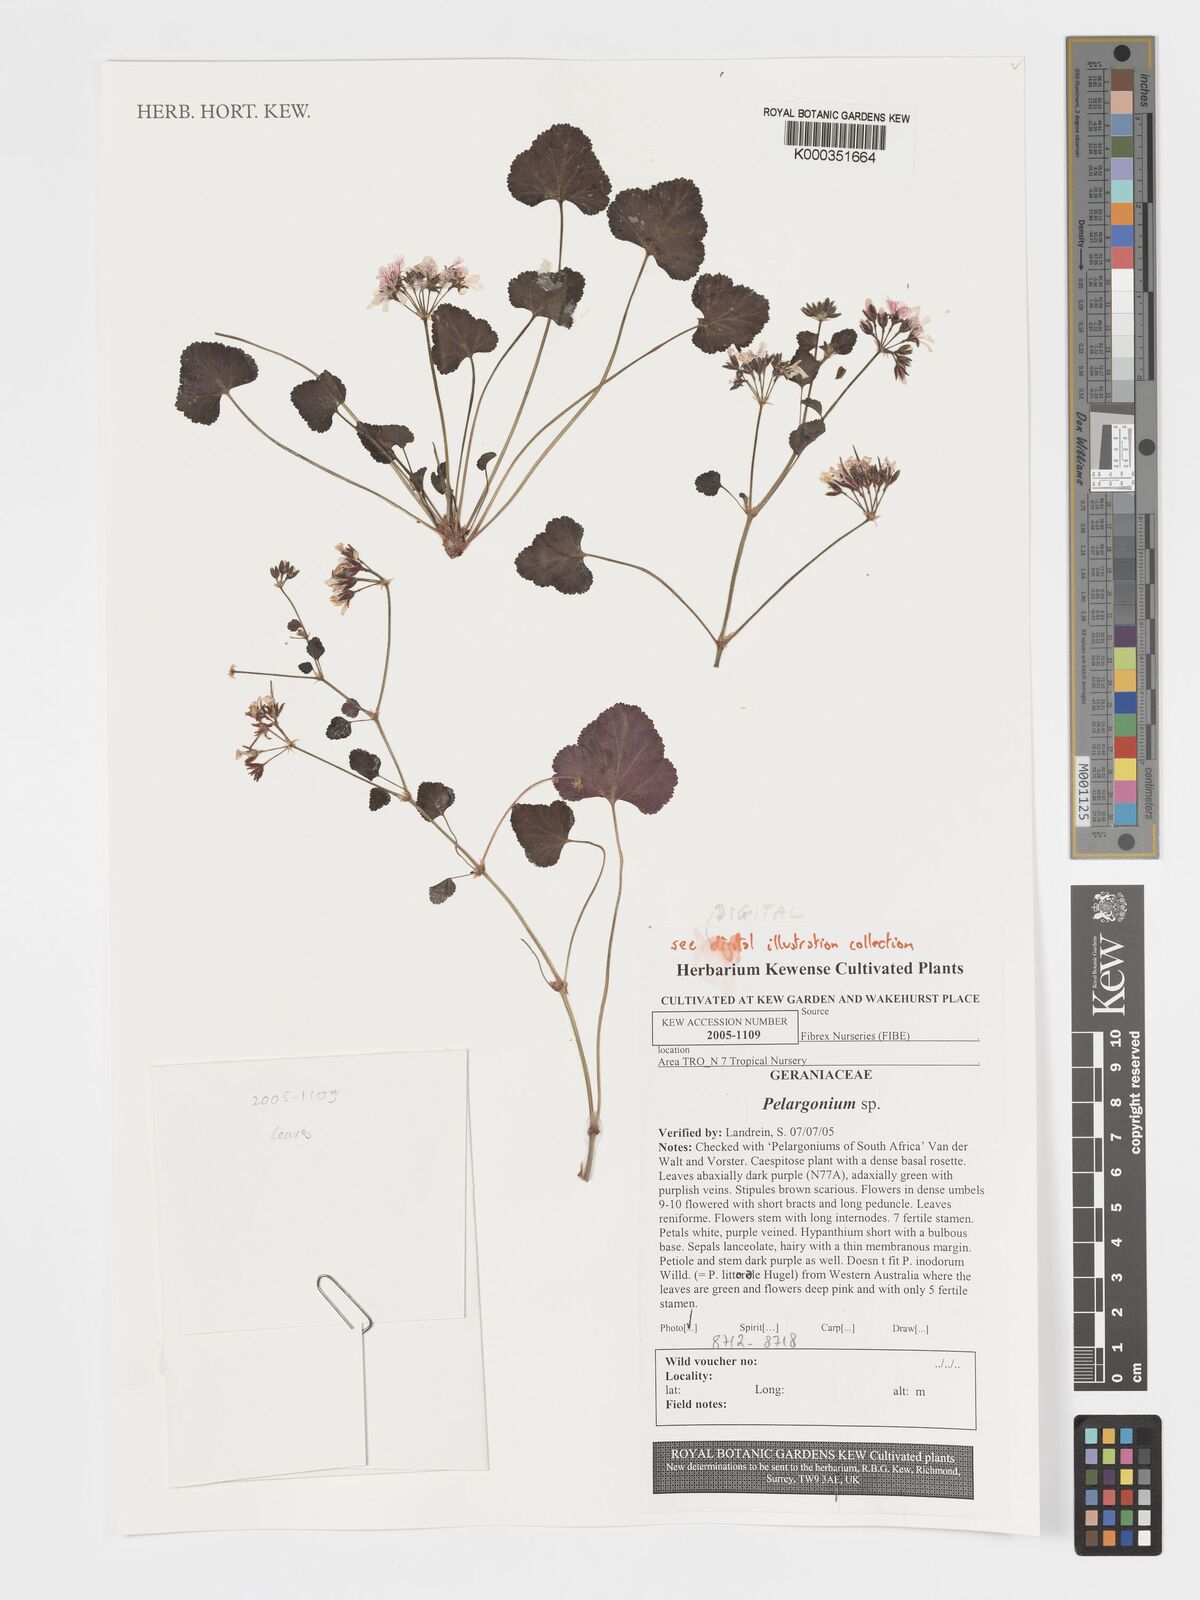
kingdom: Plantae
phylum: Tracheophyta
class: Magnoliopsida
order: Geraniales
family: Geraniaceae
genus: Pelargonium
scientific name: Pelargonium
